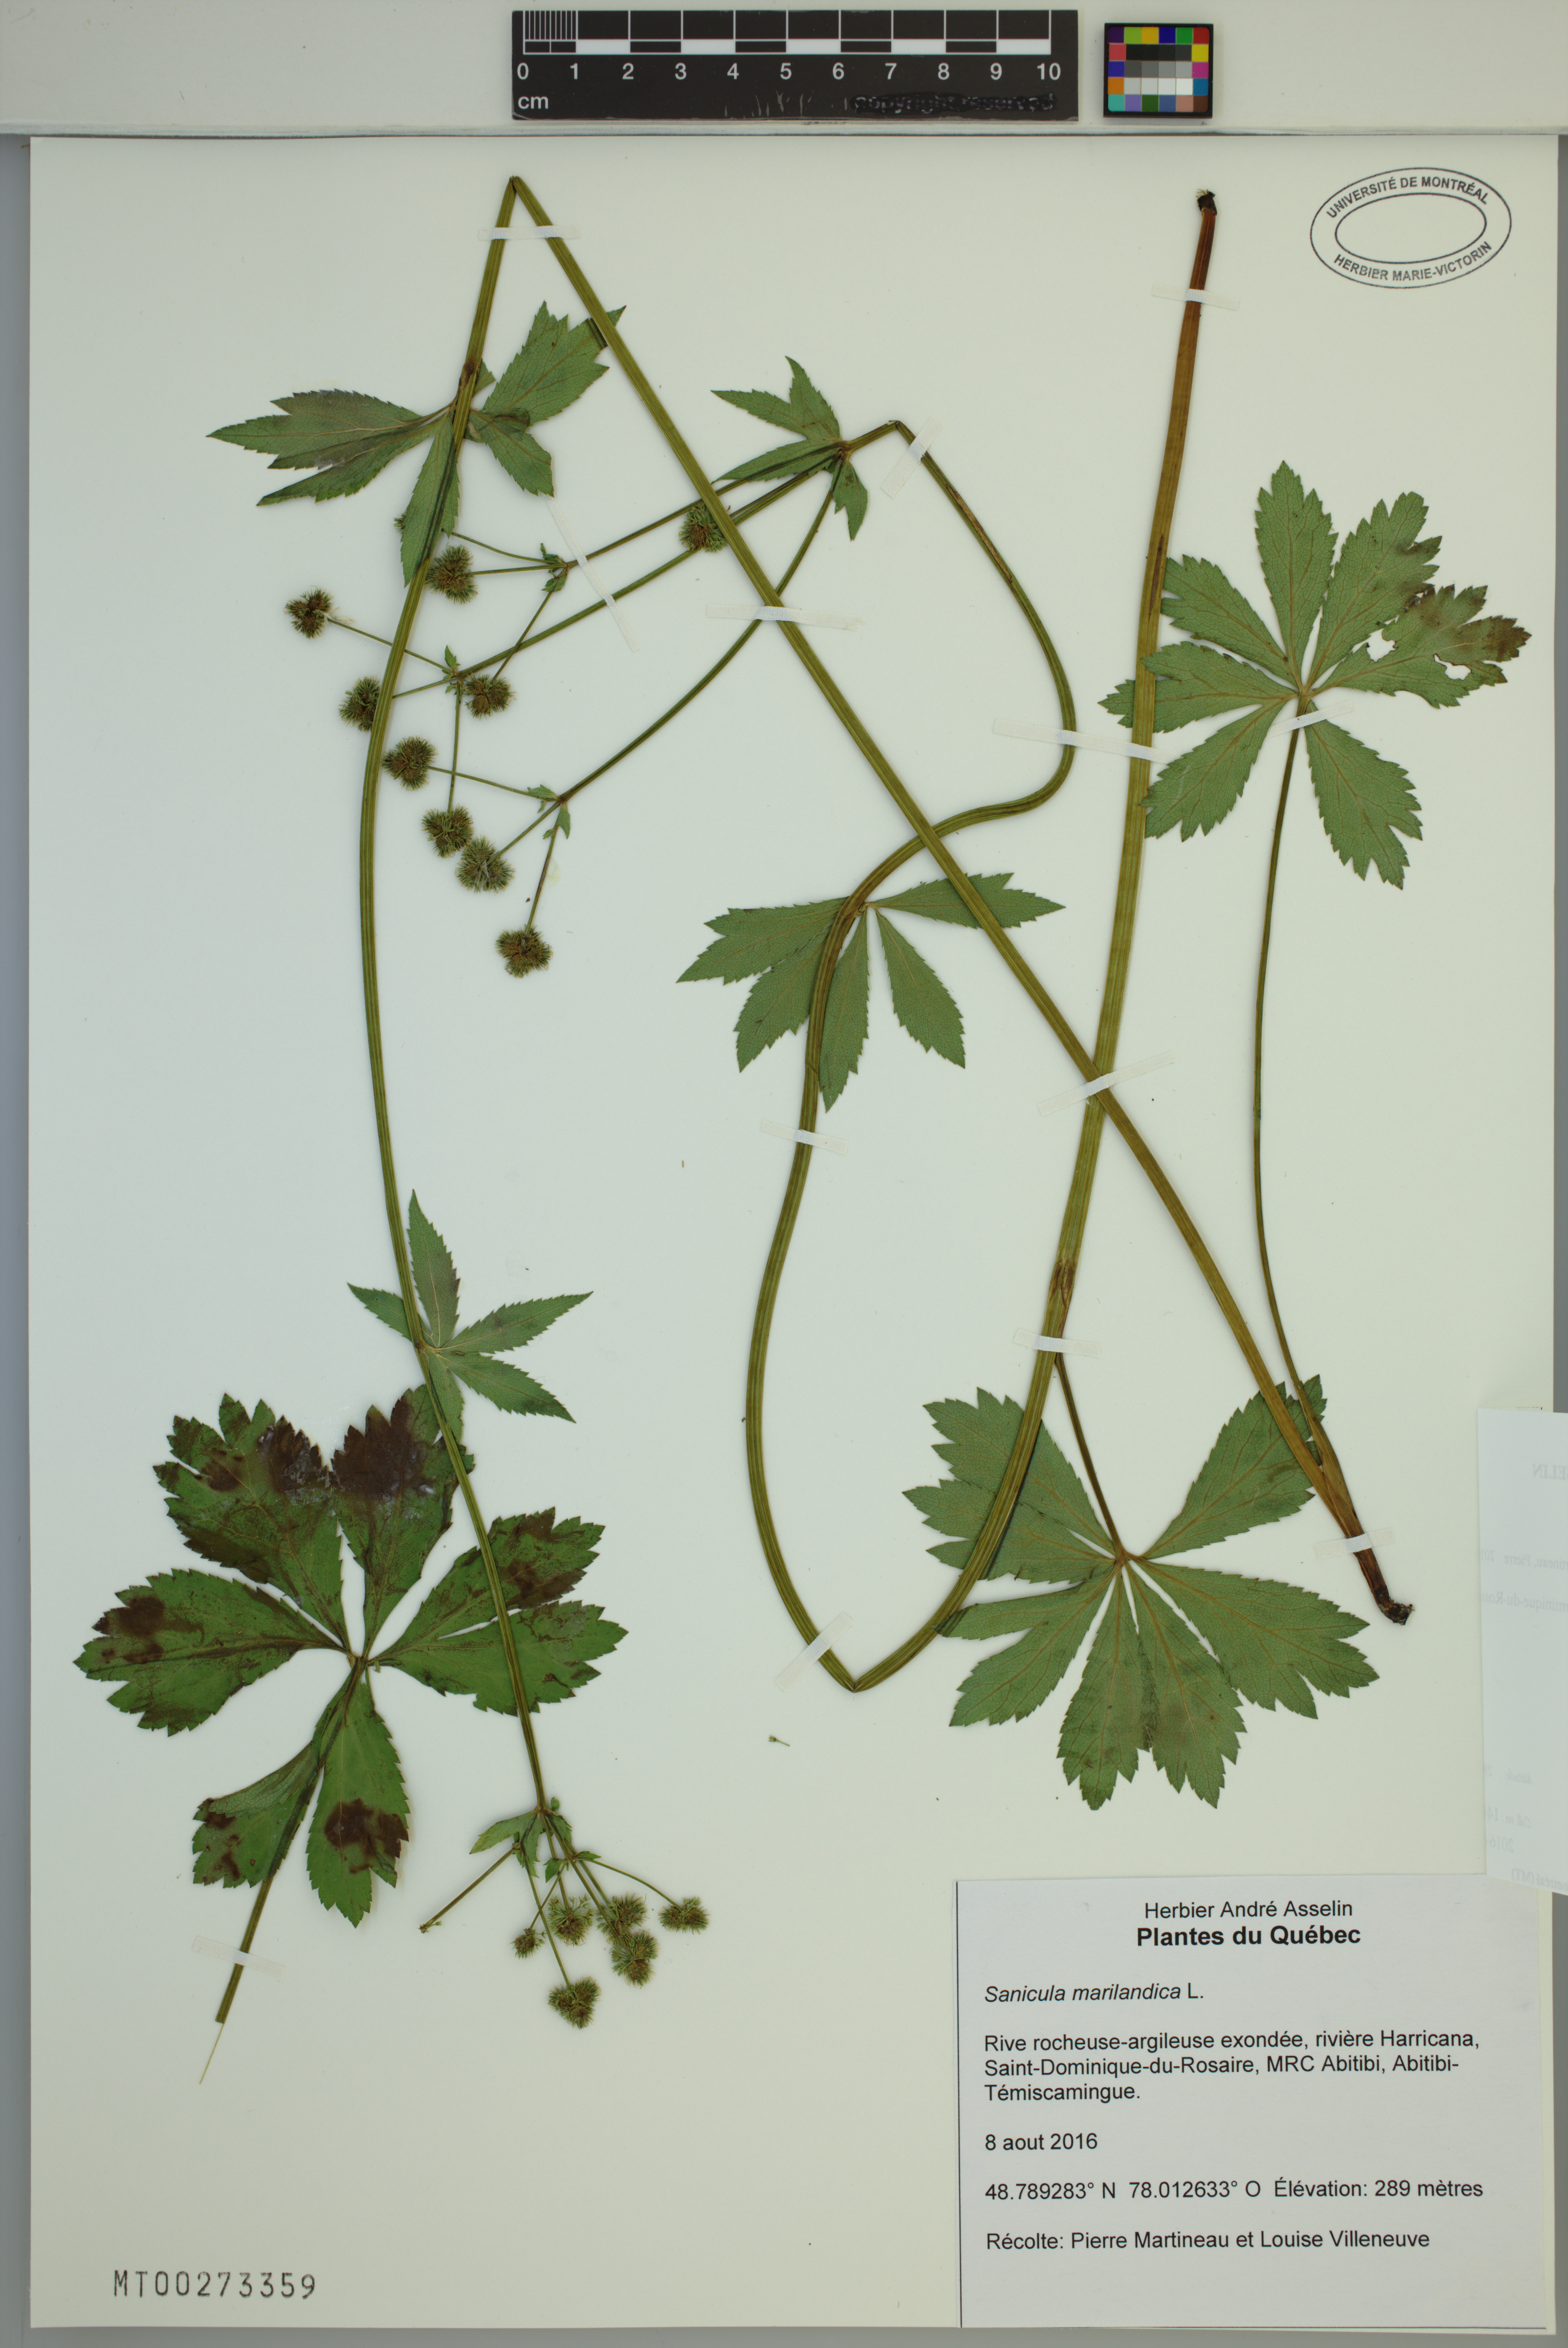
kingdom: Plantae
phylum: Tracheophyta
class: Magnoliopsida
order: Apiales
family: Apiaceae
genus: Sanicula
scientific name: Sanicula marilandica
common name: Black snakeroot
